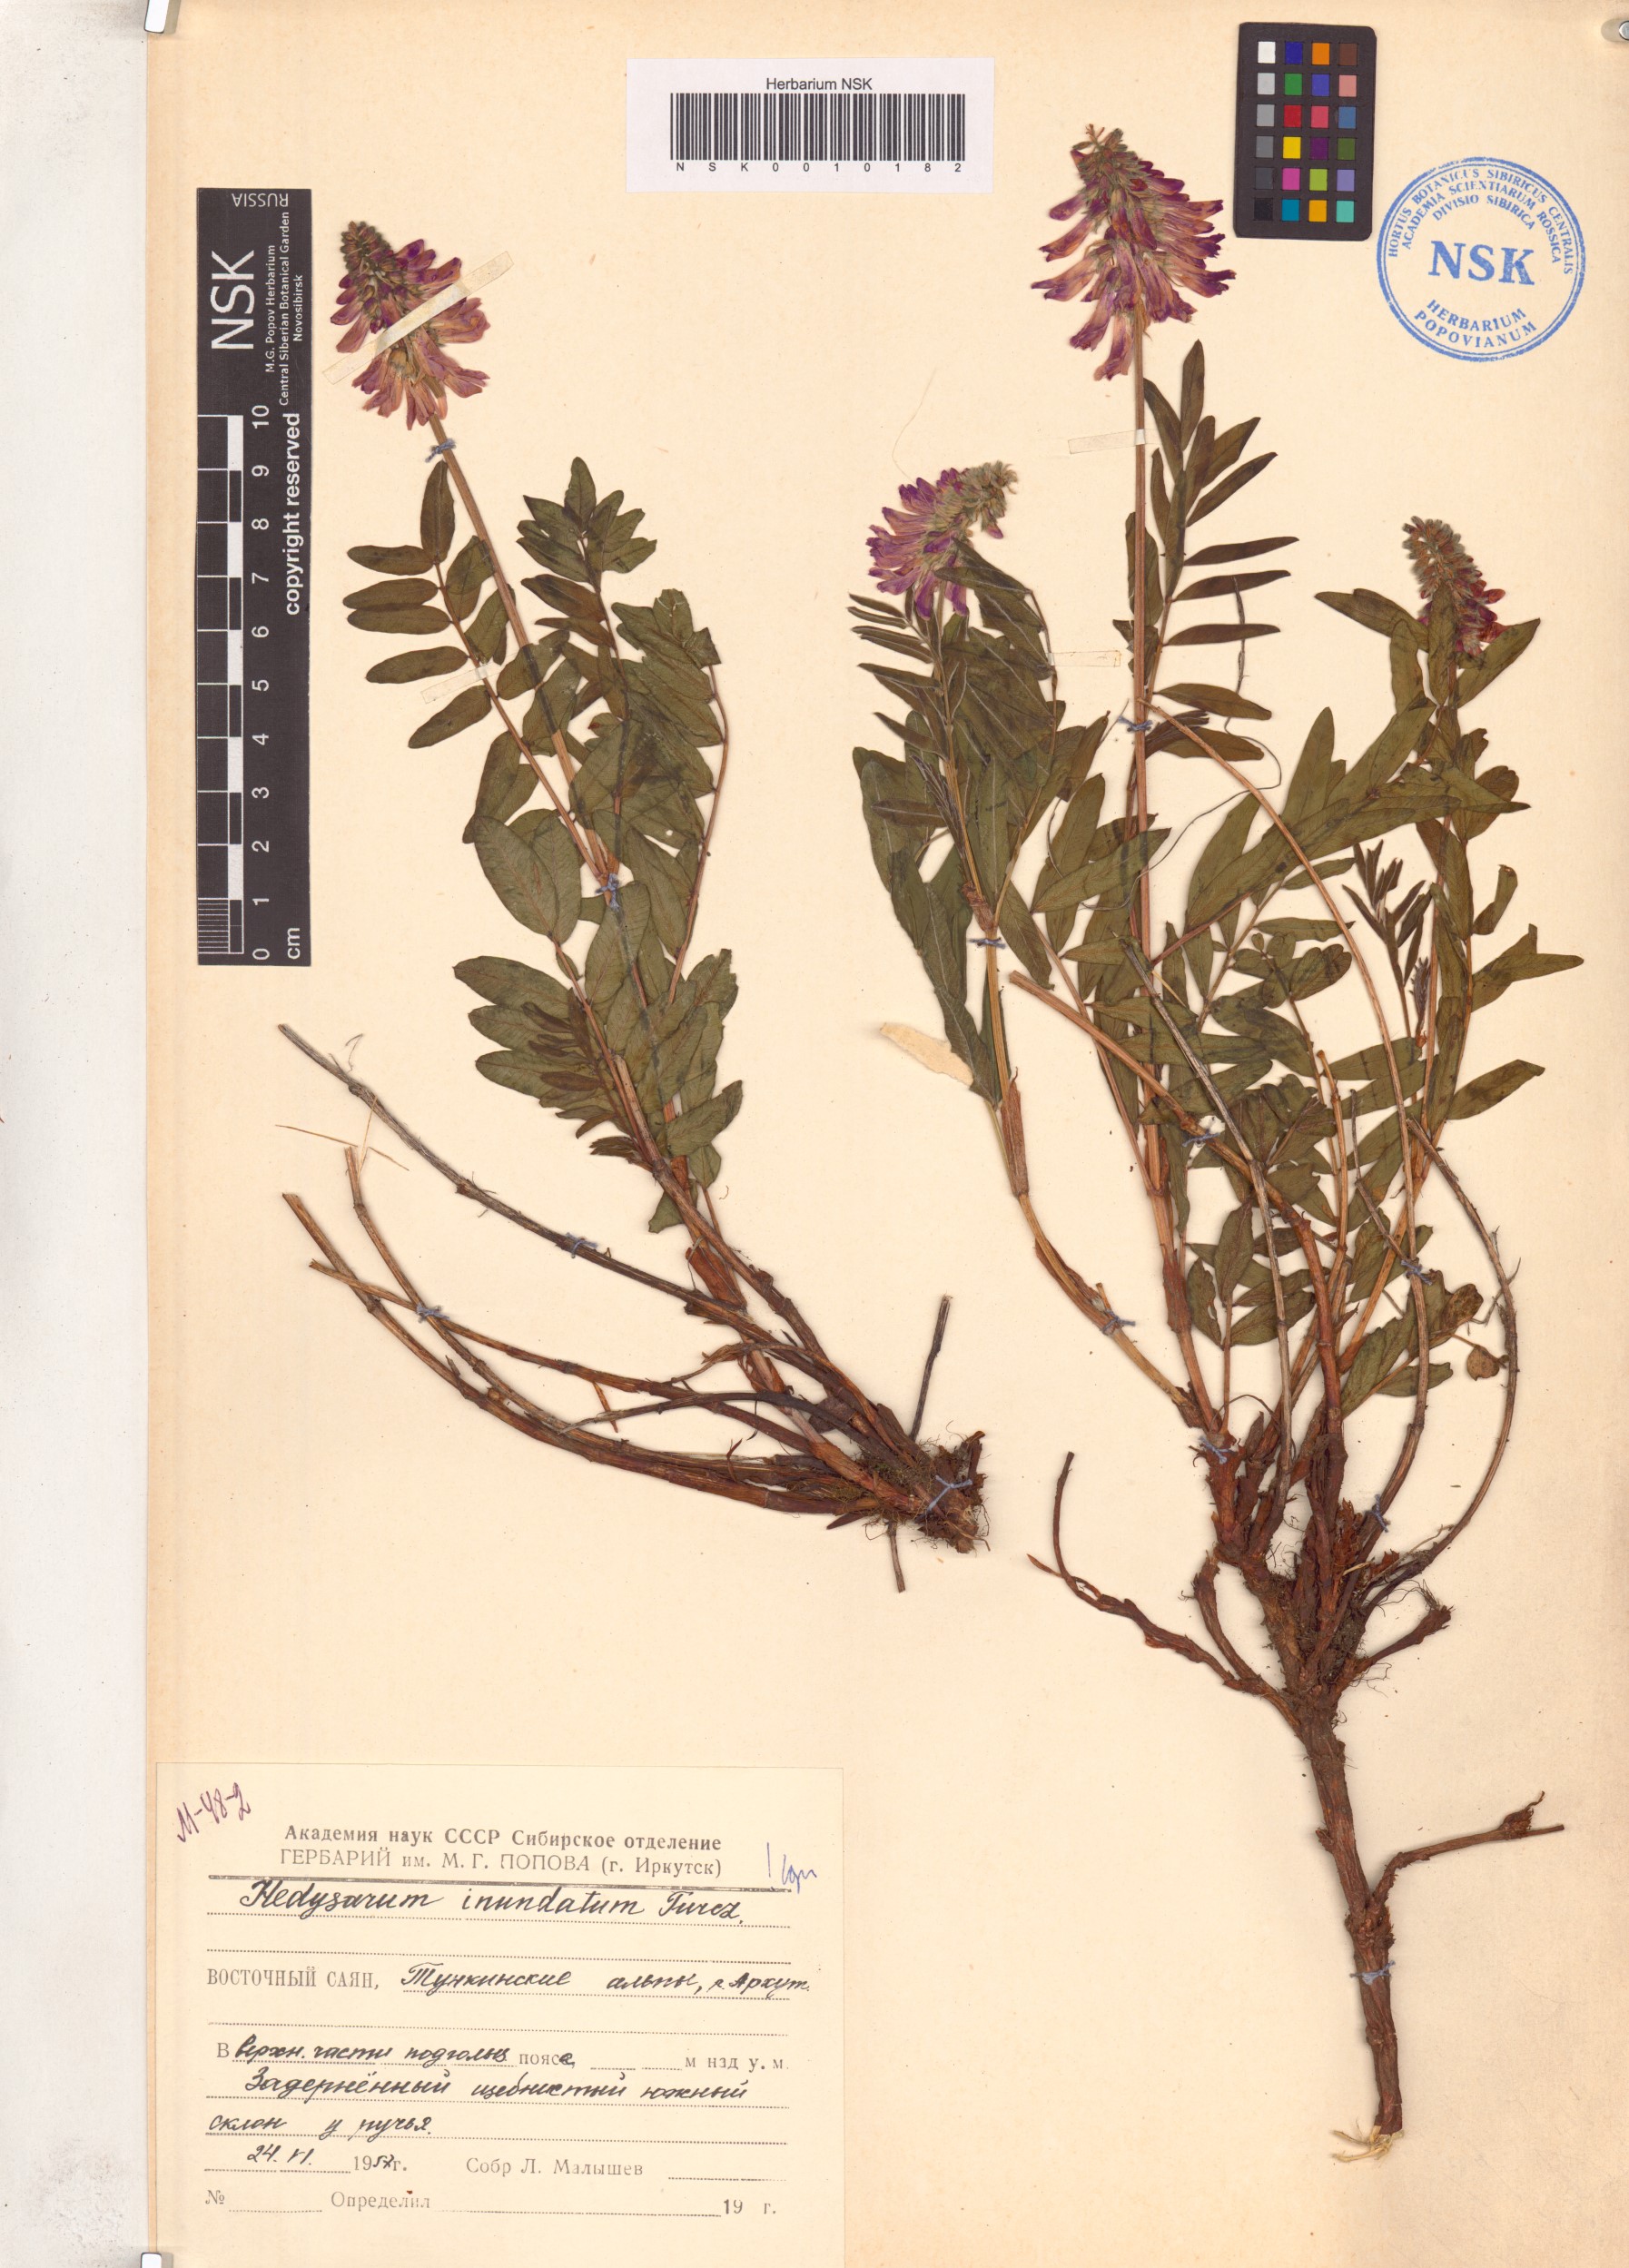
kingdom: Plantae
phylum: Tracheophyta
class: Magnoliopsida
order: Fabales
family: Fabaceae
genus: Hedysarum
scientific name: Hedysarum inundatum
